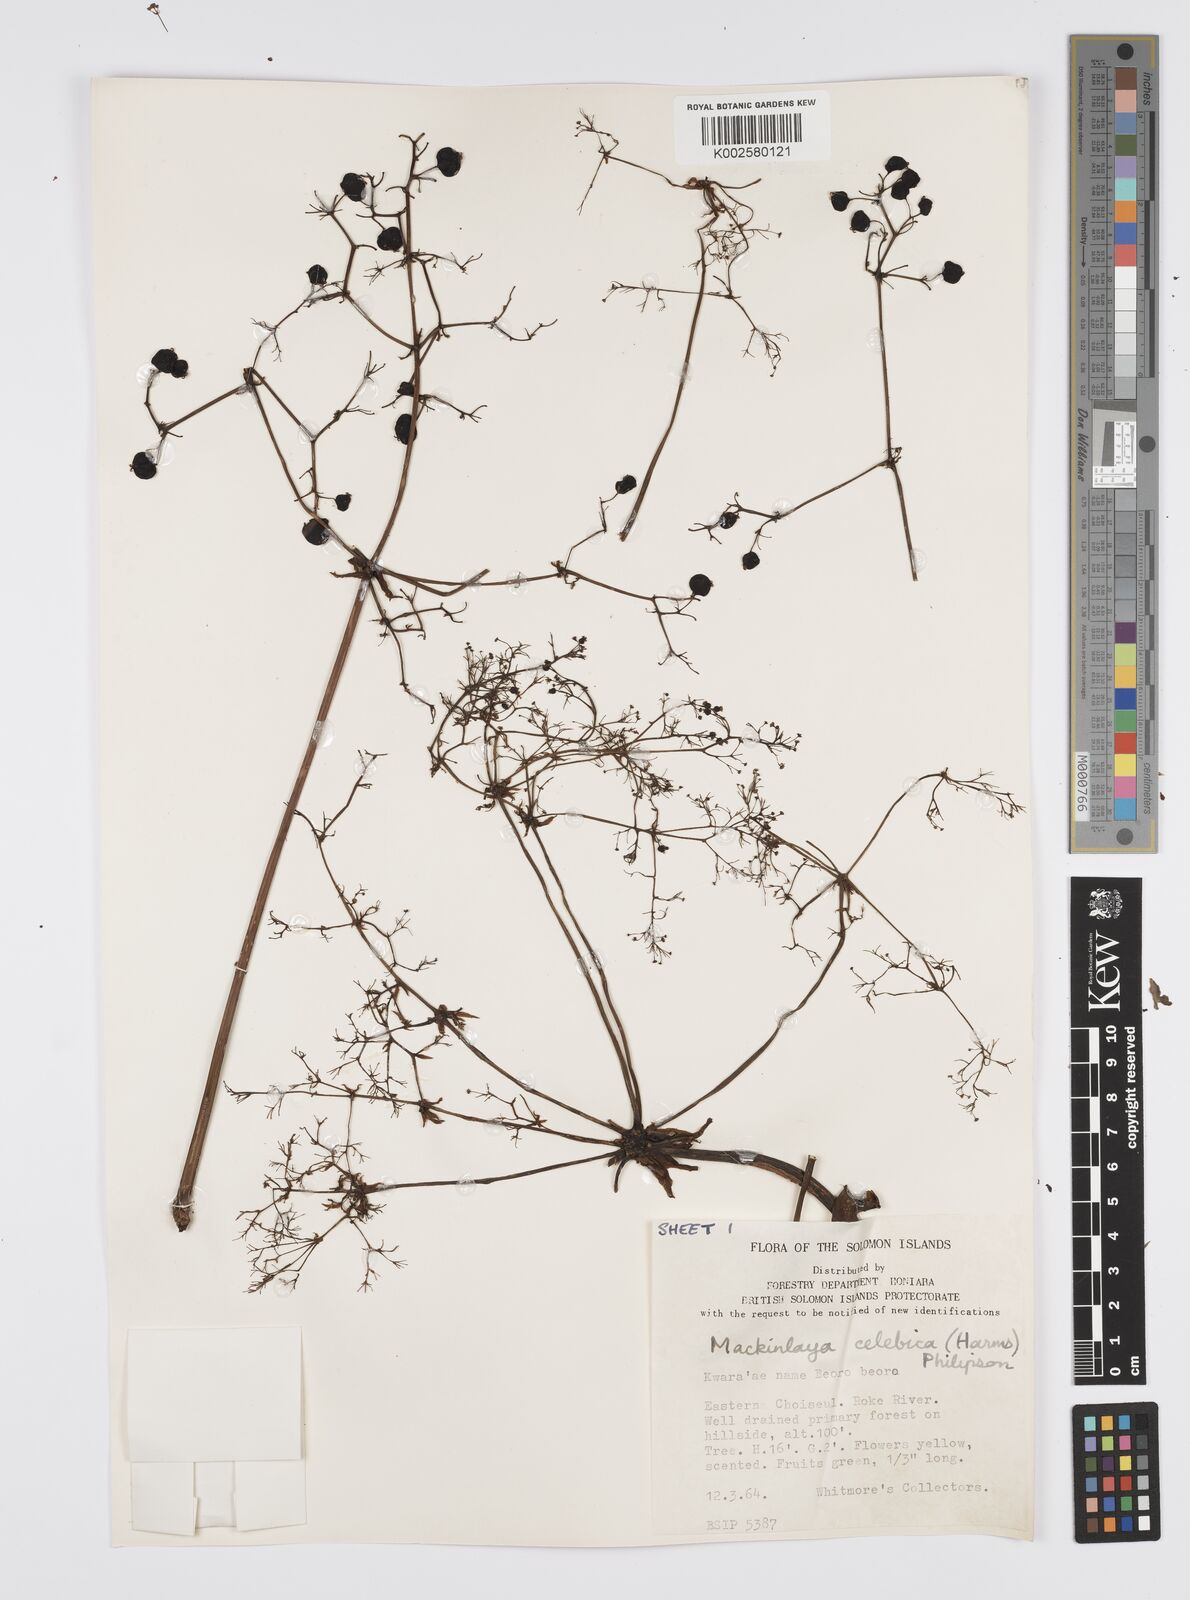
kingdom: Plantae
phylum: Tracheophyta
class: Magnoliopsida
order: Apiales
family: Apiaceae
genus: Mackinlaya
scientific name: Mackinlaya celebica
